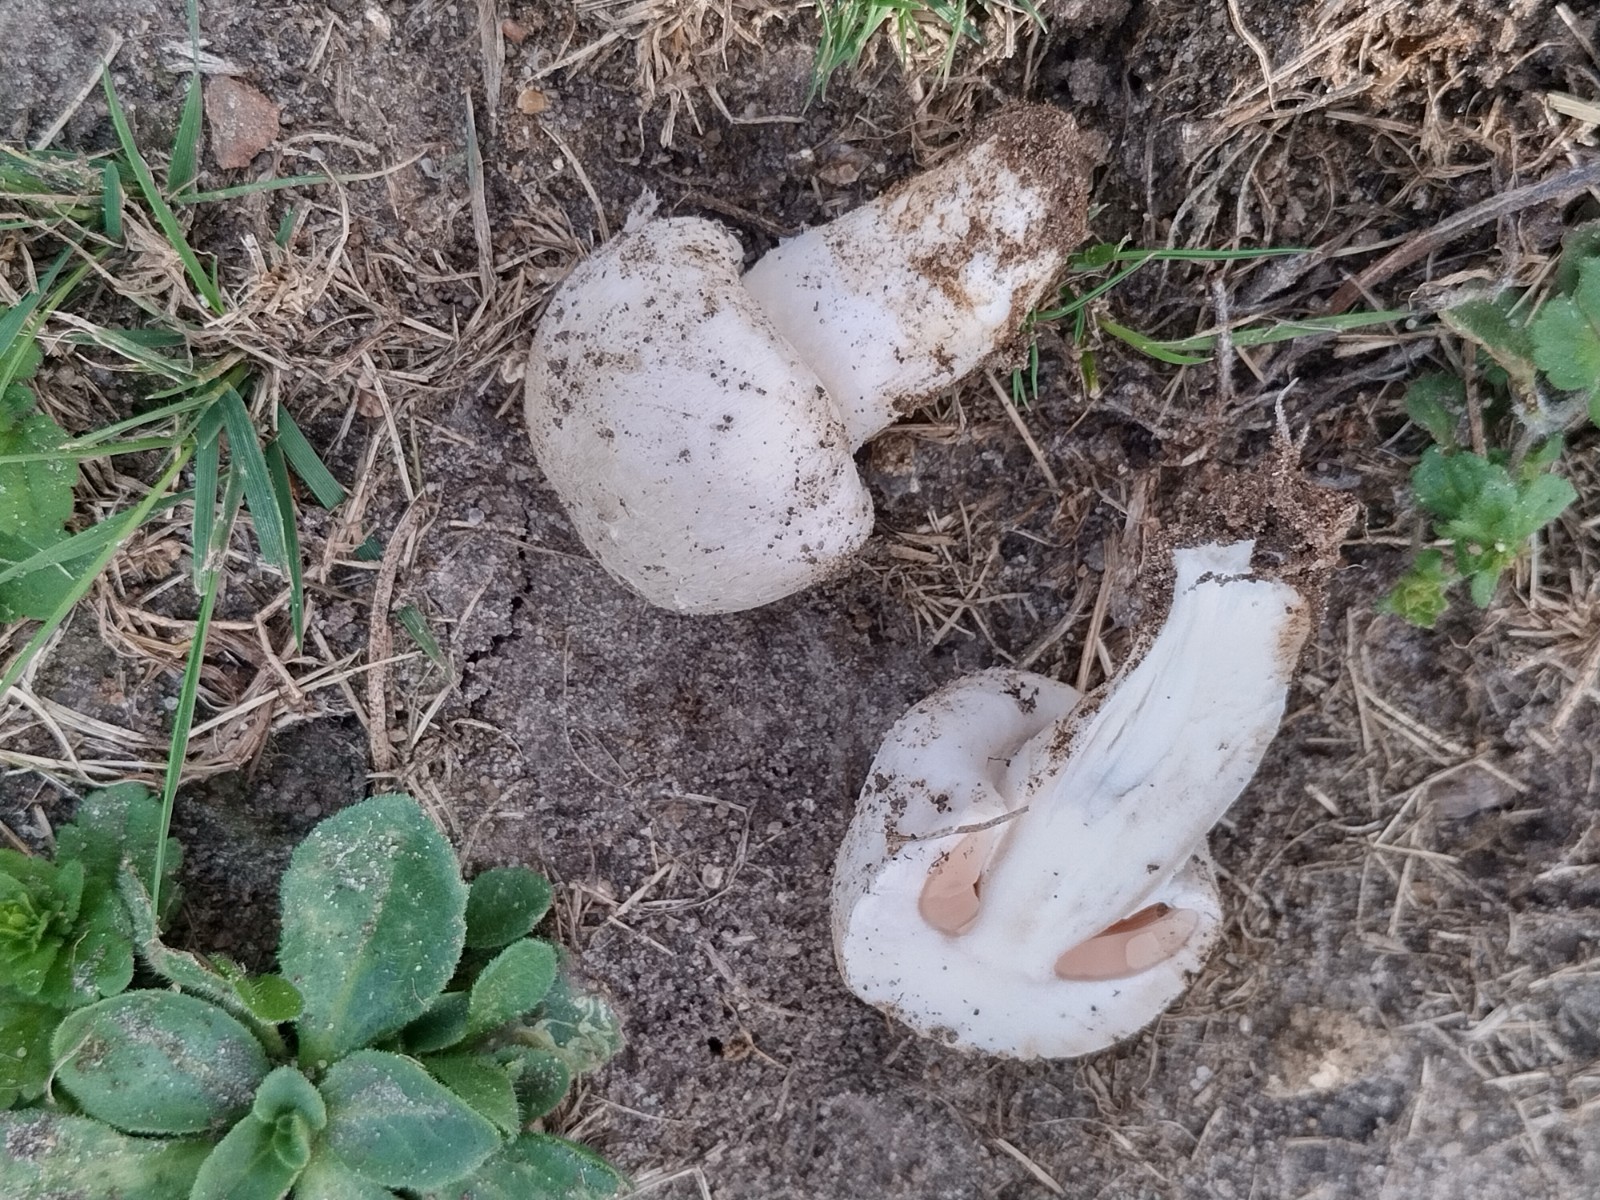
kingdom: Fungi
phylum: Basidiomycota
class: Agaricomycetes
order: Agaricales
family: Agaricaceae
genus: Agaricus
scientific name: Agaricus
